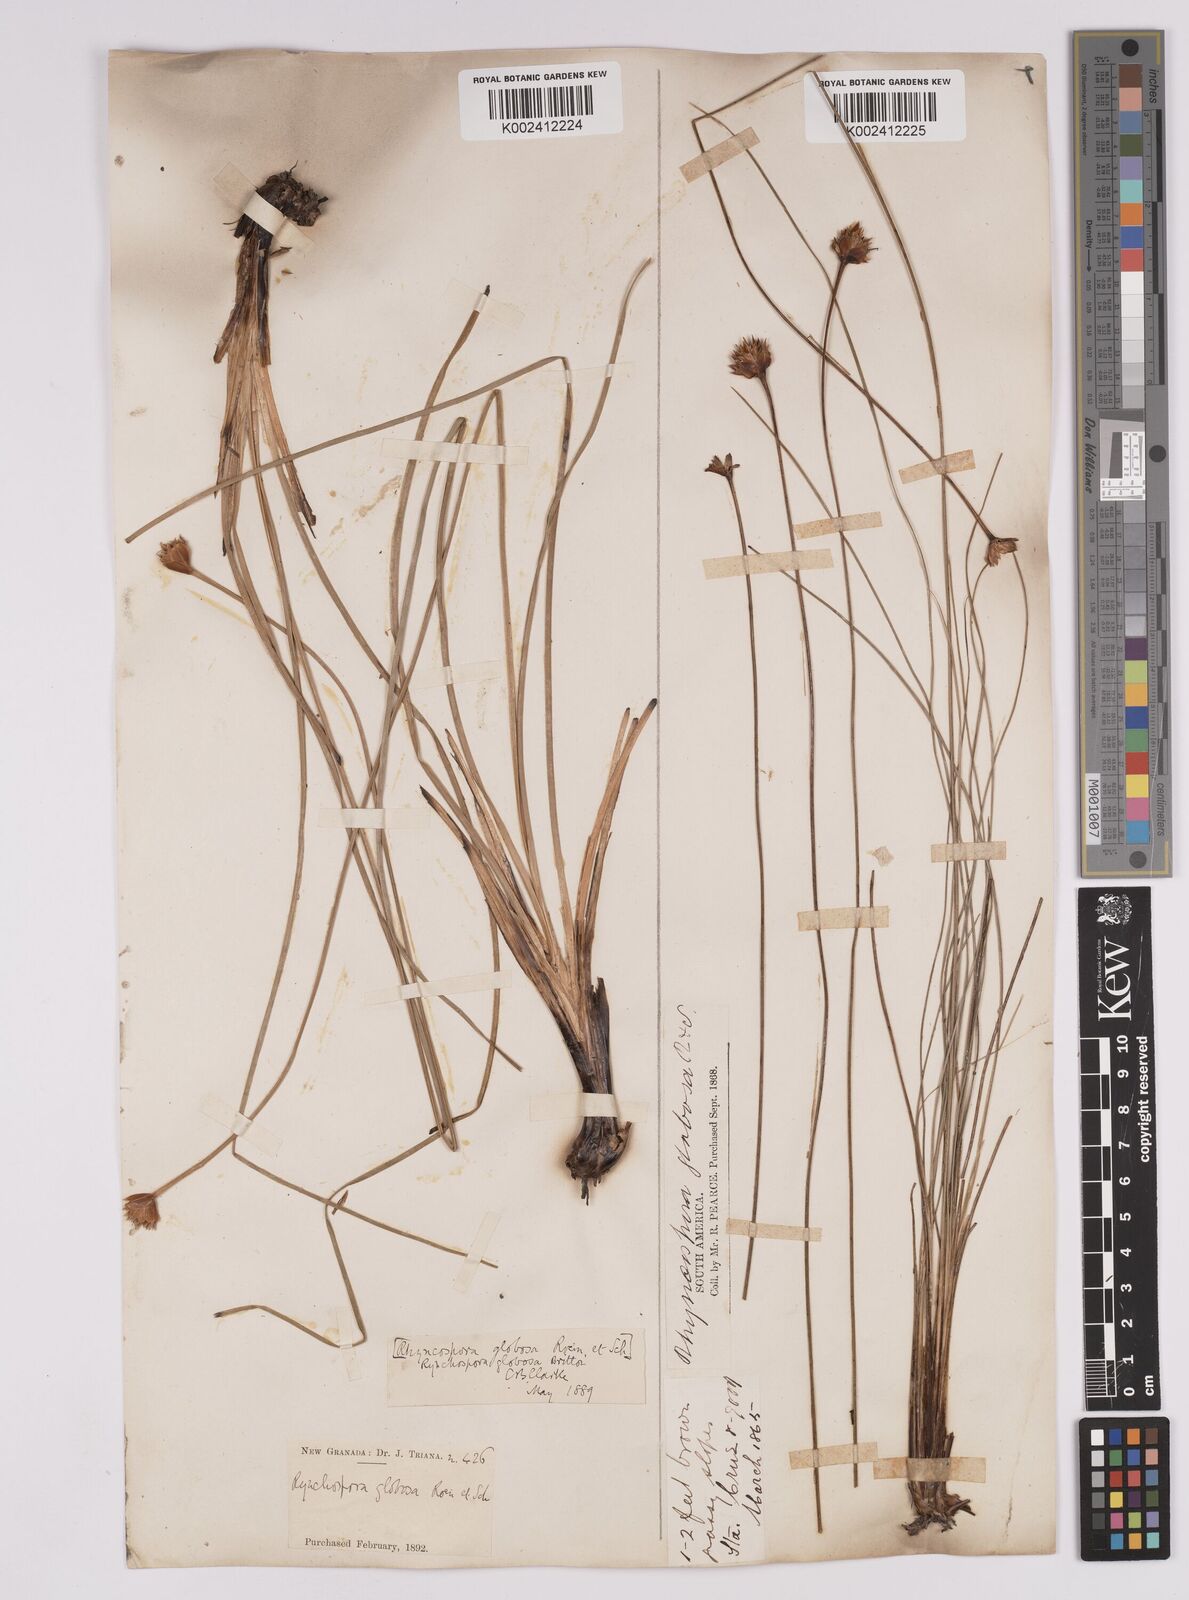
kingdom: Plantae
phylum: Tracheophyta
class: Liliopsida
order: Poales
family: Cyperaceae
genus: Rhynchospora
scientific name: Rhynchospora barbata
